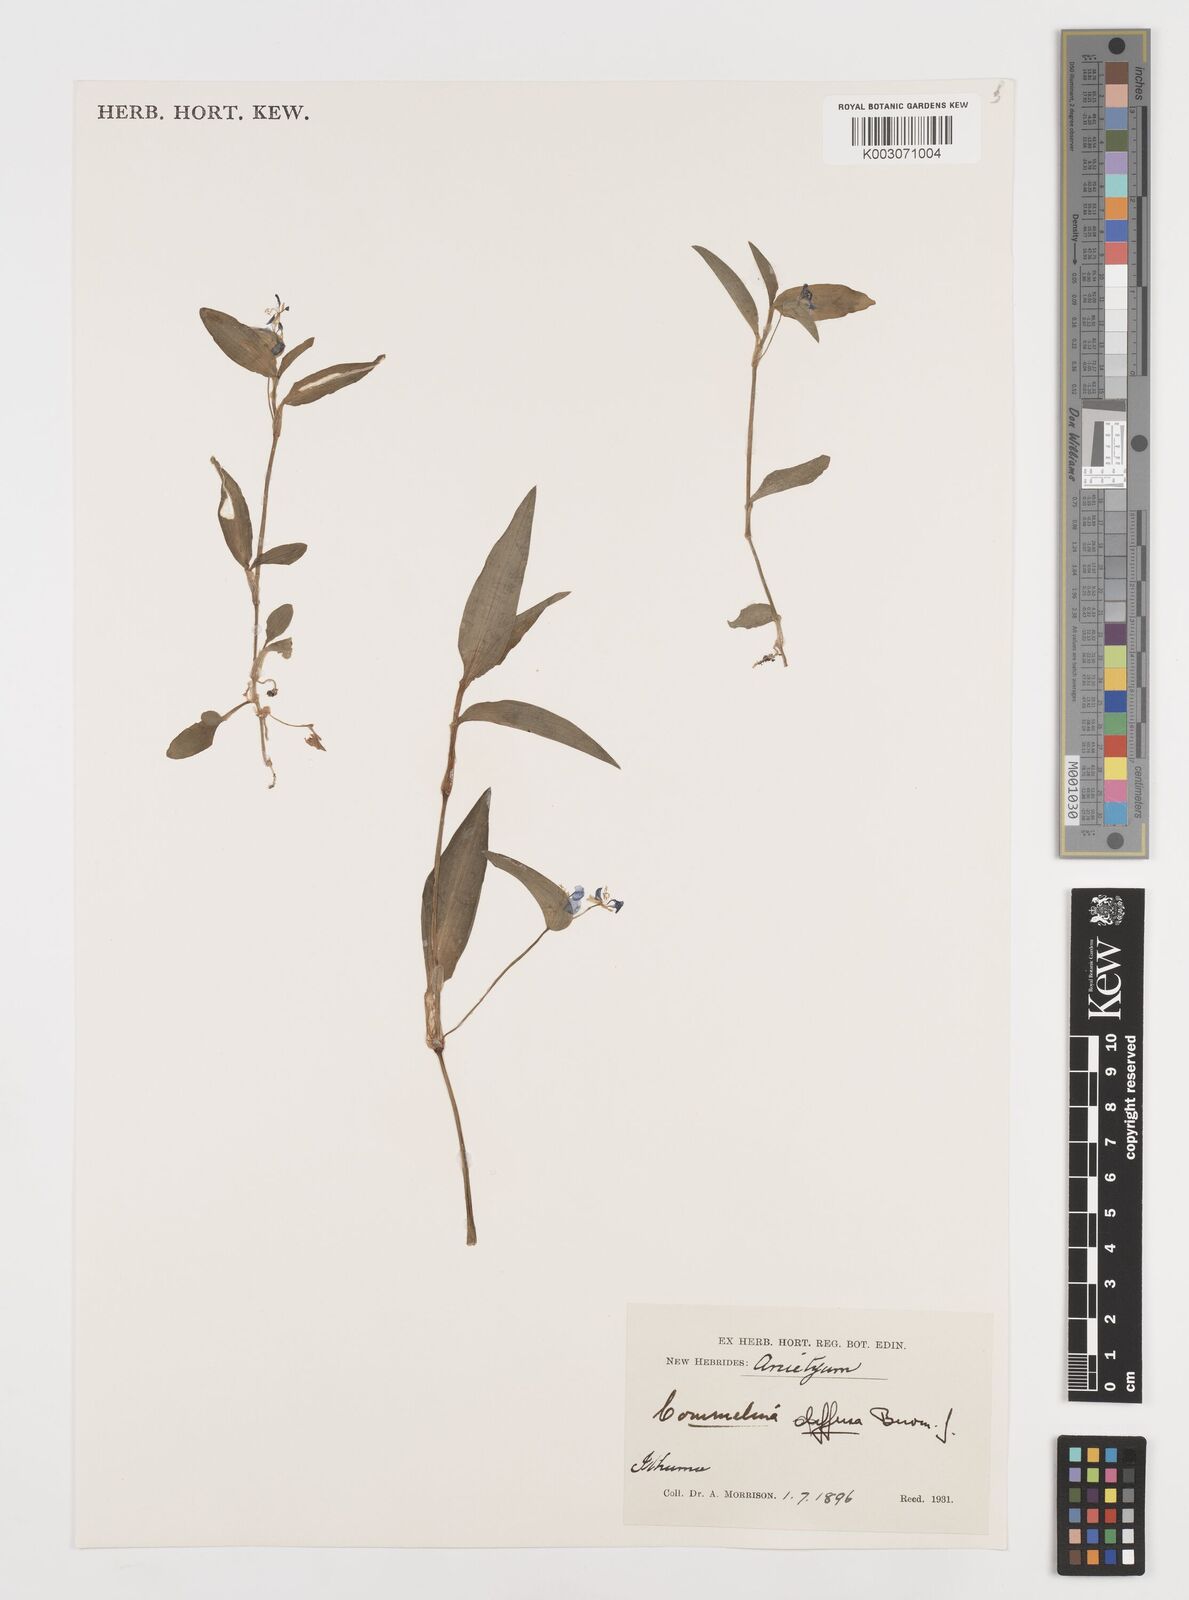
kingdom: Plantae
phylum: Tracheophyta
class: Liliopsida
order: Commelinales
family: Commelinaceae
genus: Commelina
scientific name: Commelina diffusa
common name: Climbing dayflower
